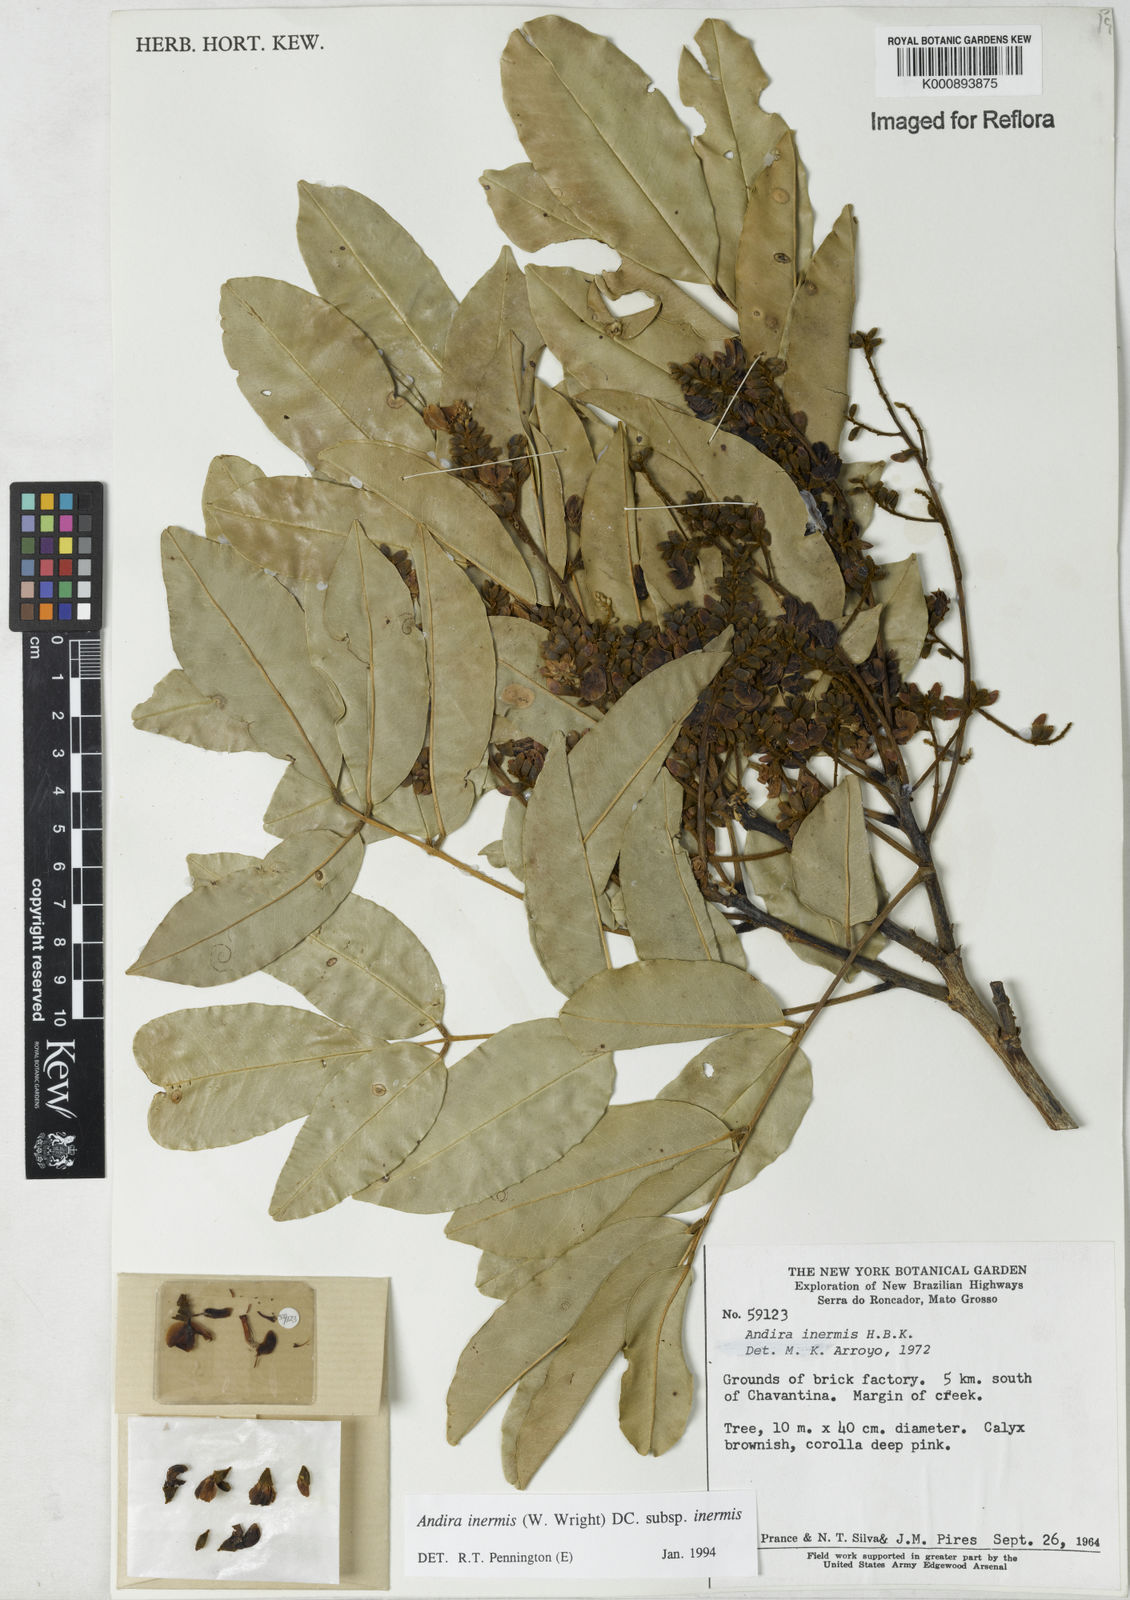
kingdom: Plantae
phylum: Tracheophyta
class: Magnoliopsida
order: Fabales
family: Fabaceae
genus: Andira
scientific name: Andira inermis
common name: Angelin
